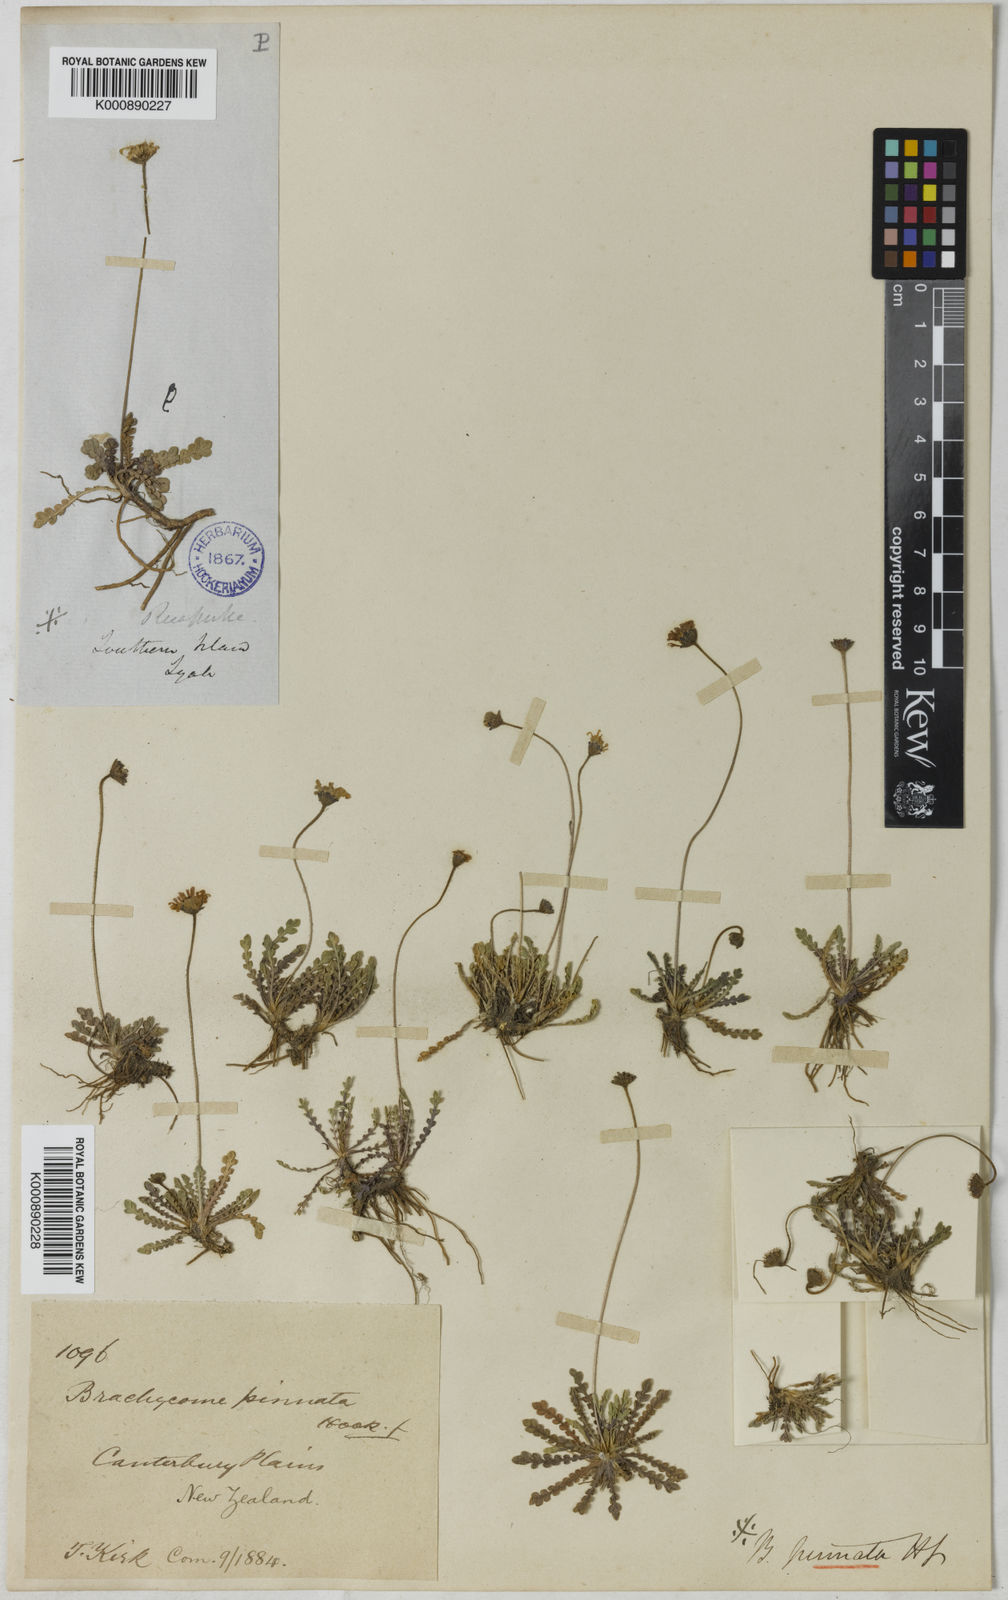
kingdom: Plantae
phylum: Tracheophyta
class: Magnoliopsida
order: Asterales
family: Asteraceae
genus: Brachyscome
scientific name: Brachyscome radicata
